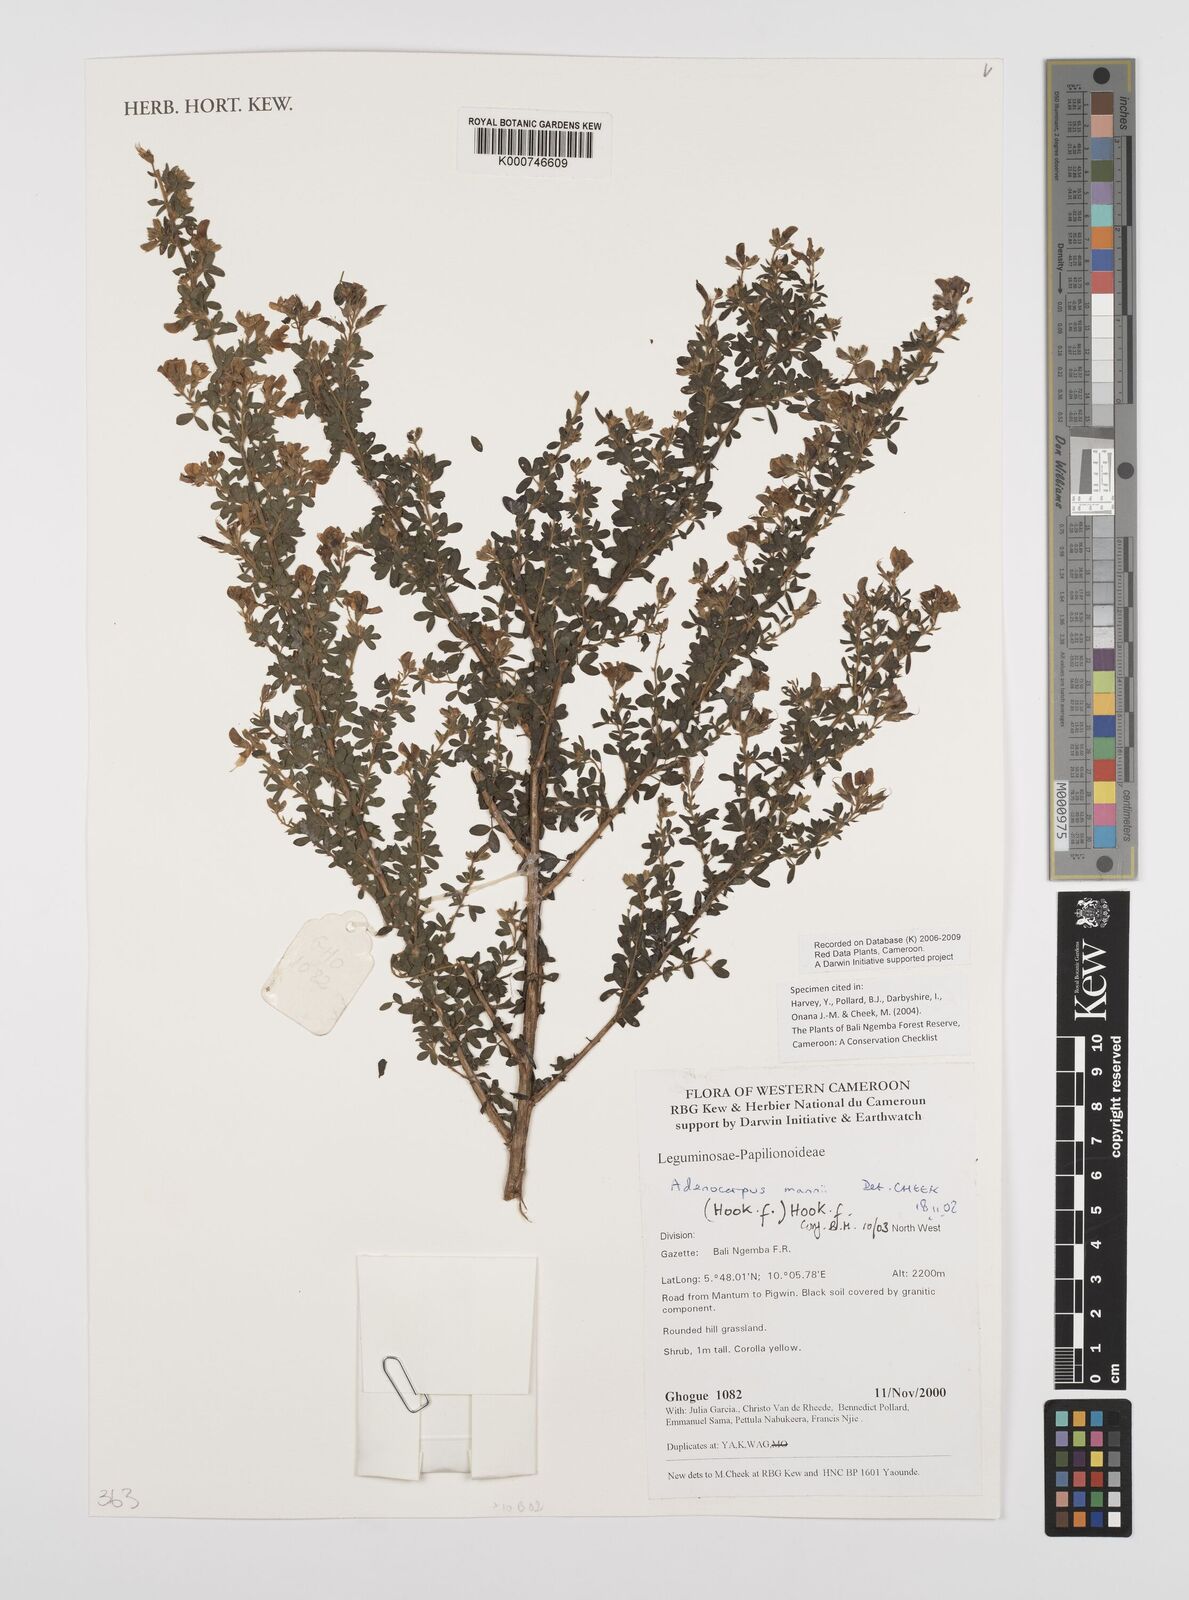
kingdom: Plantae
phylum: Tracheophyta
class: Magnoliopsida
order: Fabales
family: Fabaceae
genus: Adenocarpus
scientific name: Adenocarpus mannii
